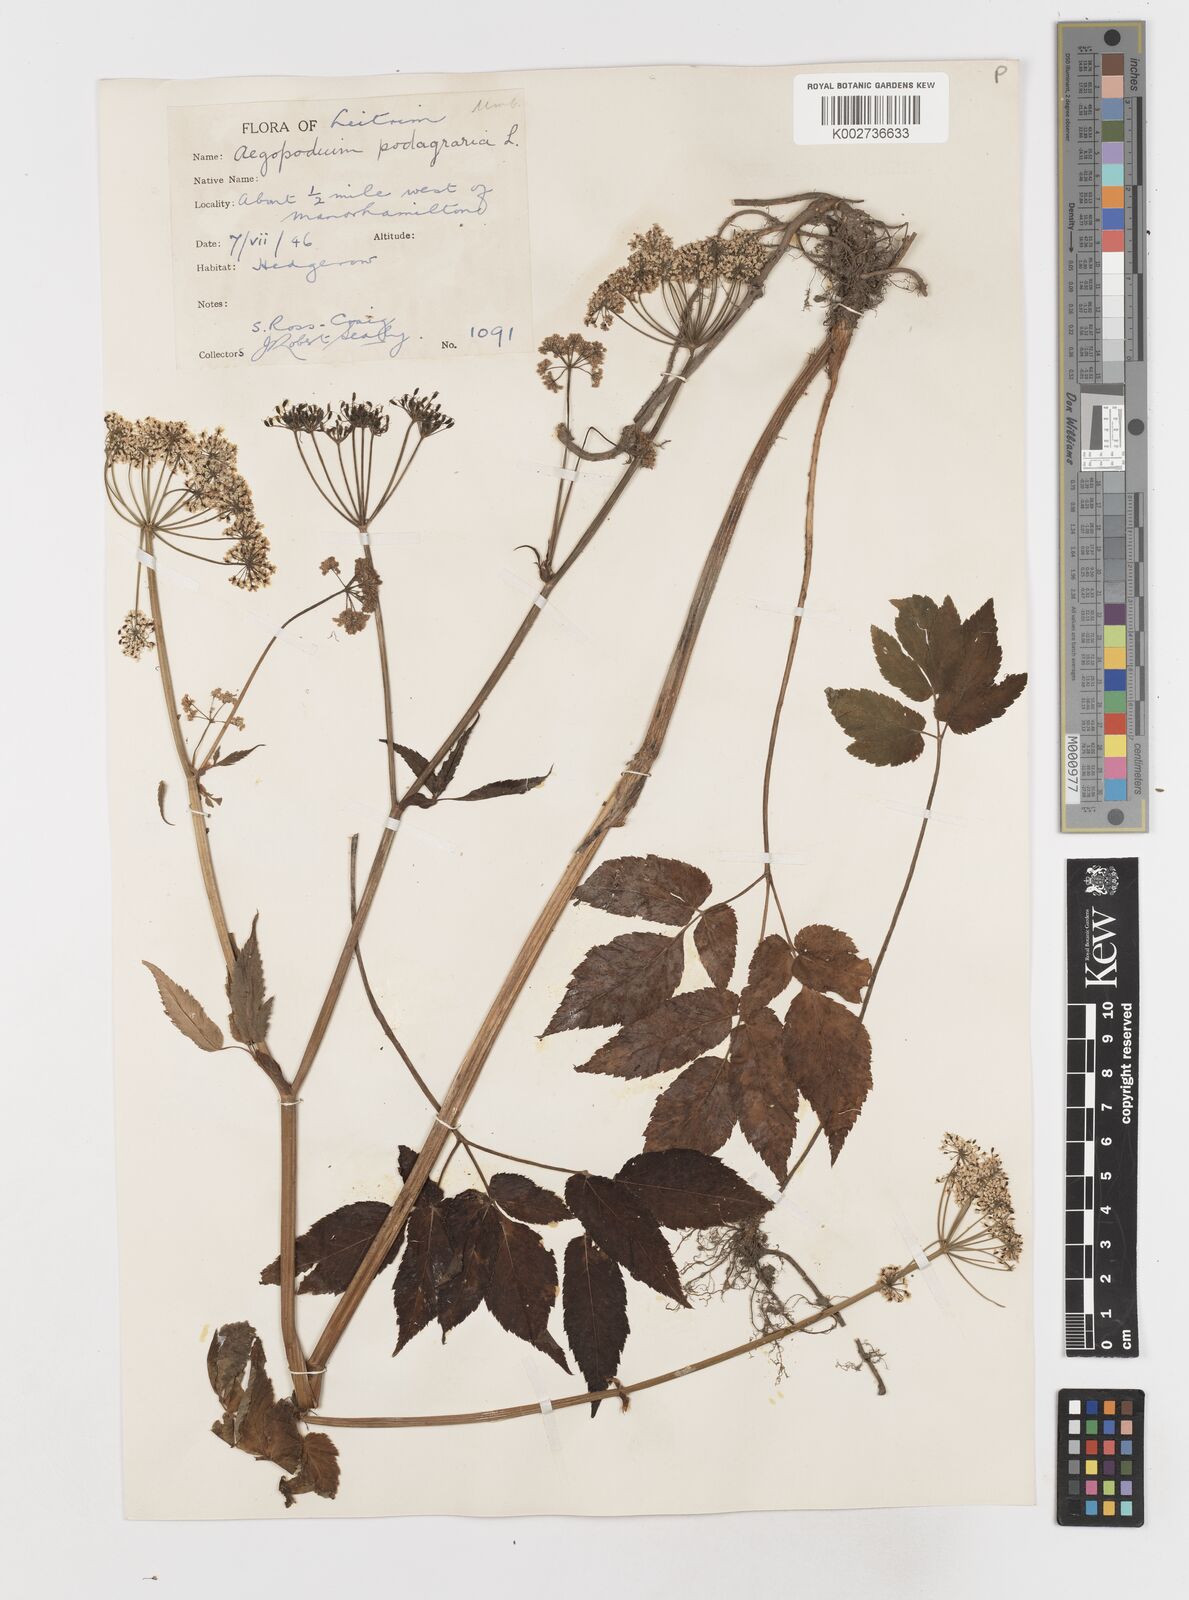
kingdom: Plantae
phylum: Tracheophyta
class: Magnoliopsida
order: Apiales
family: Apiaceae
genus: Aegopodium
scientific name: Aegopodium podagraria
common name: Ground-elder
